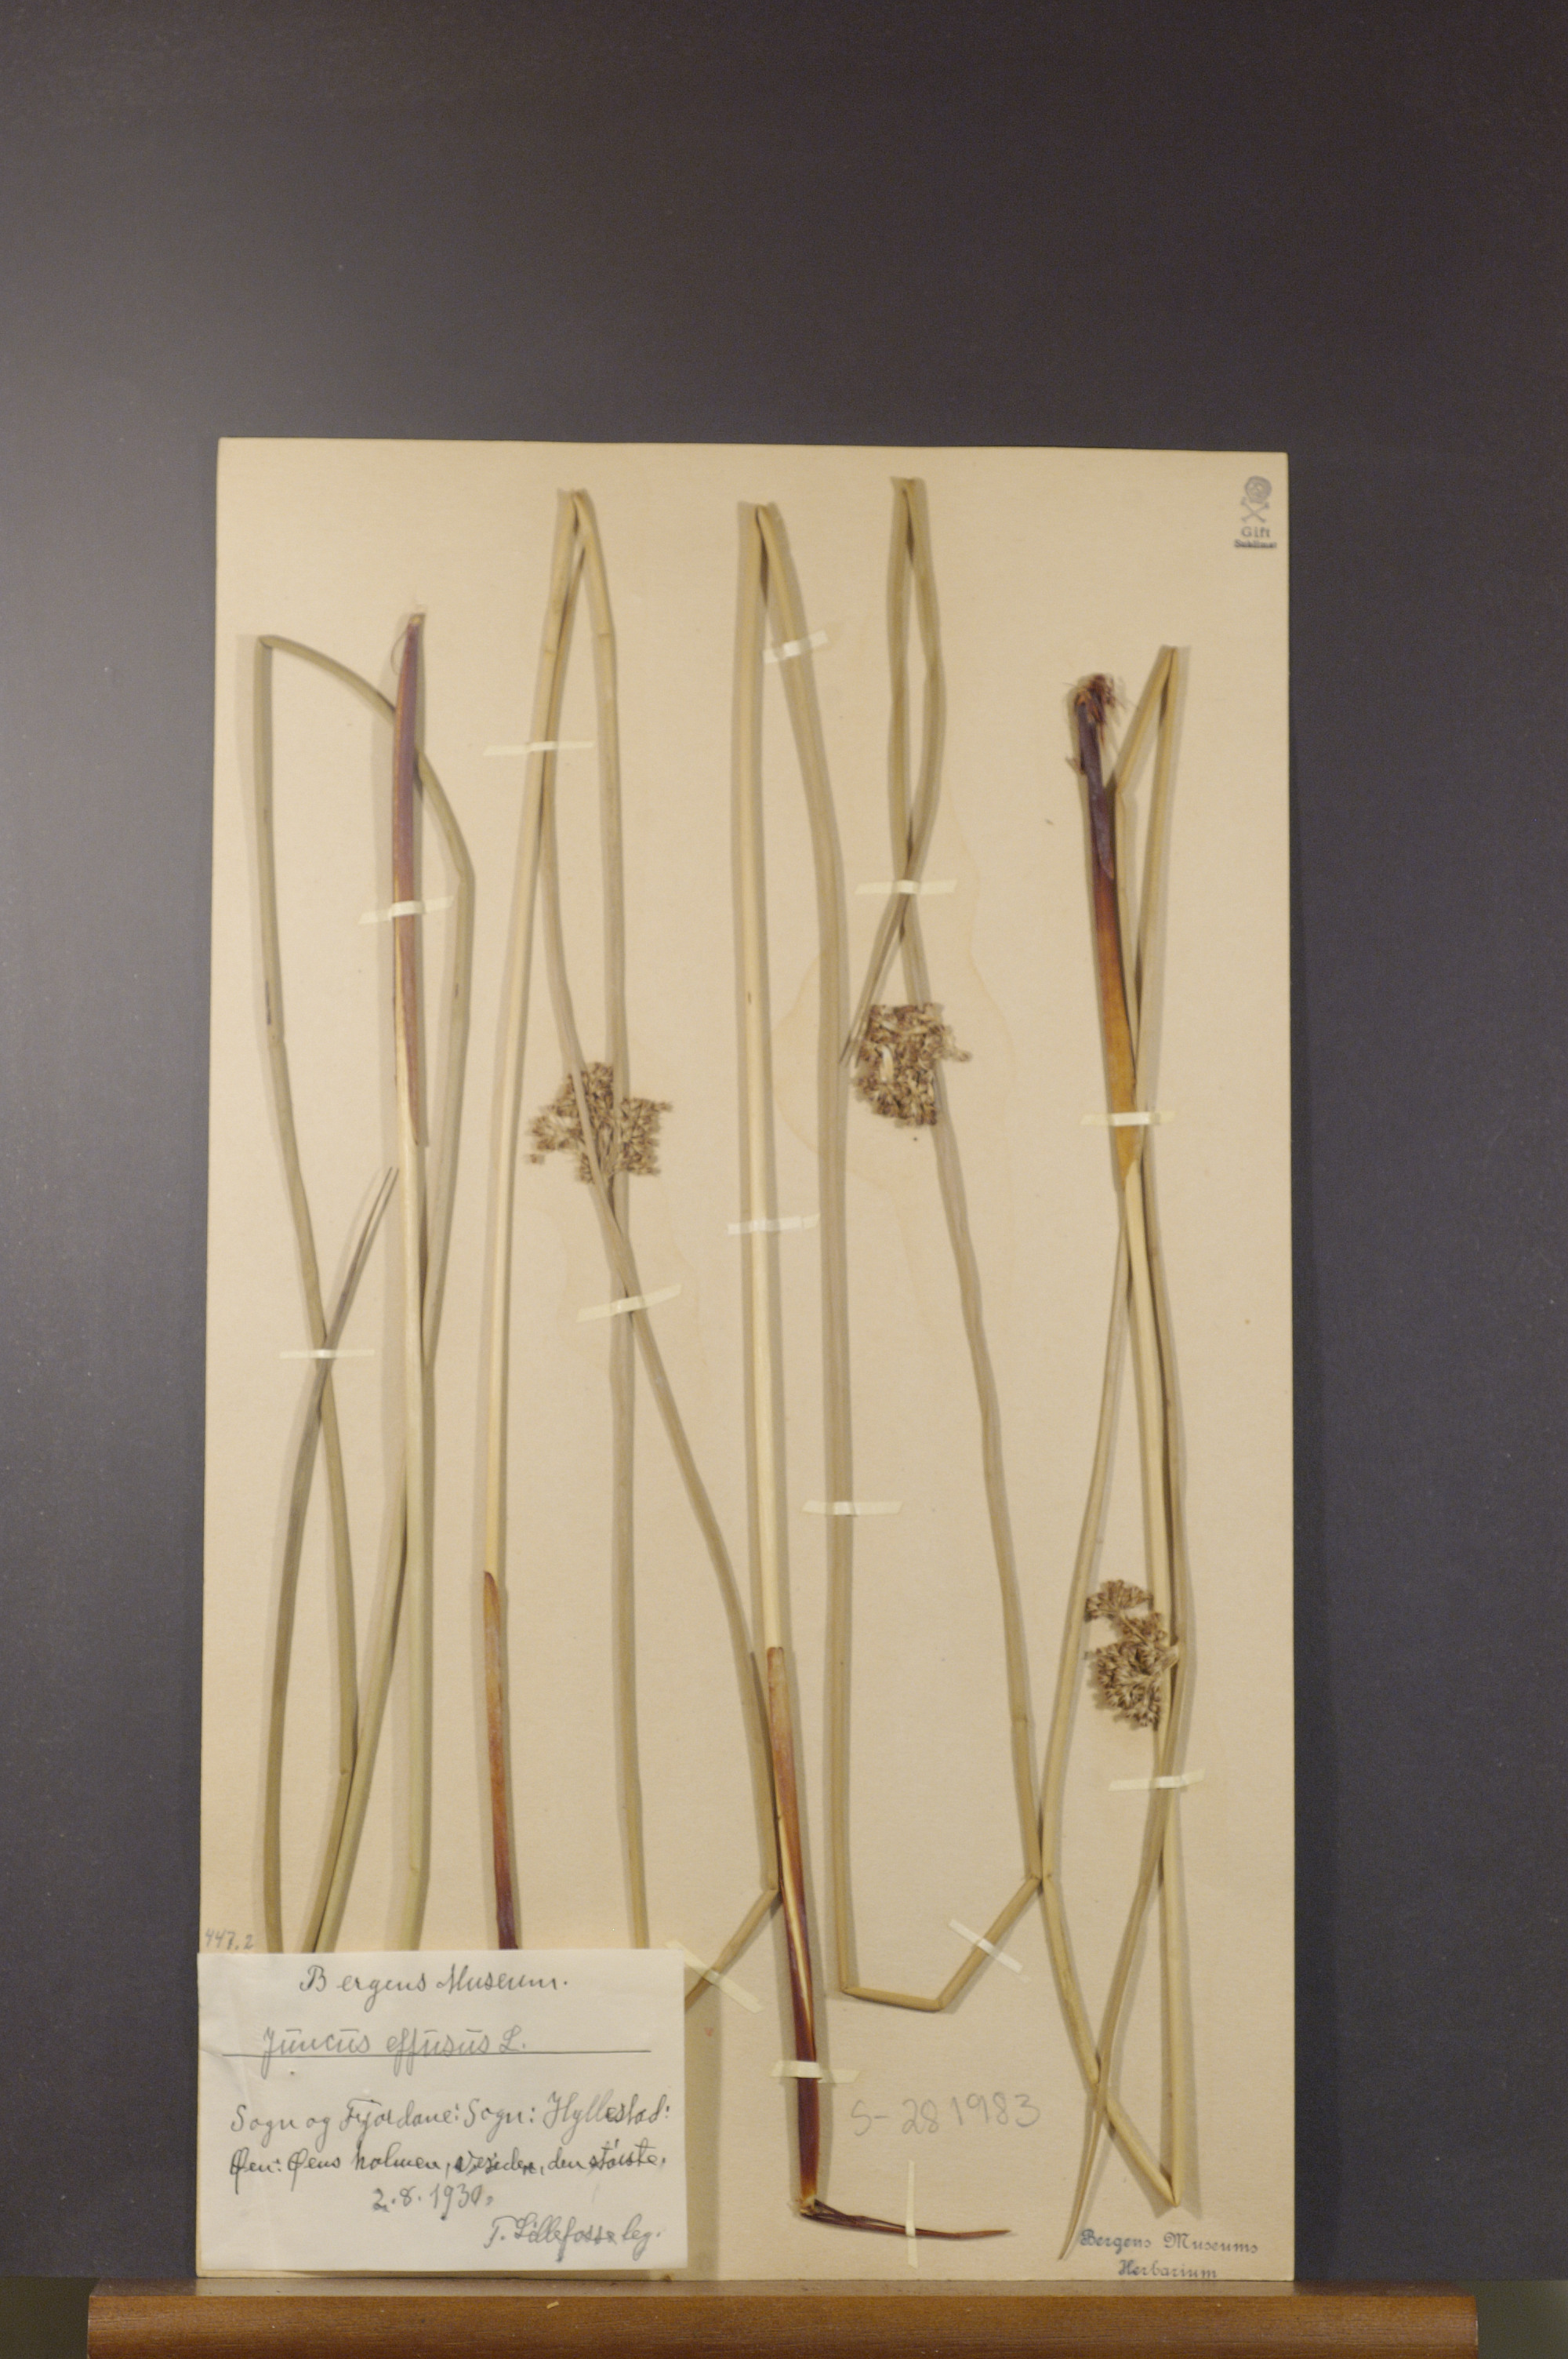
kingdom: Plantae
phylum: Tracheophyta
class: Liliopsida
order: Poales
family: Juncaceae
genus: Juncus
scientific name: Juncus effusus
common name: Soft rush
